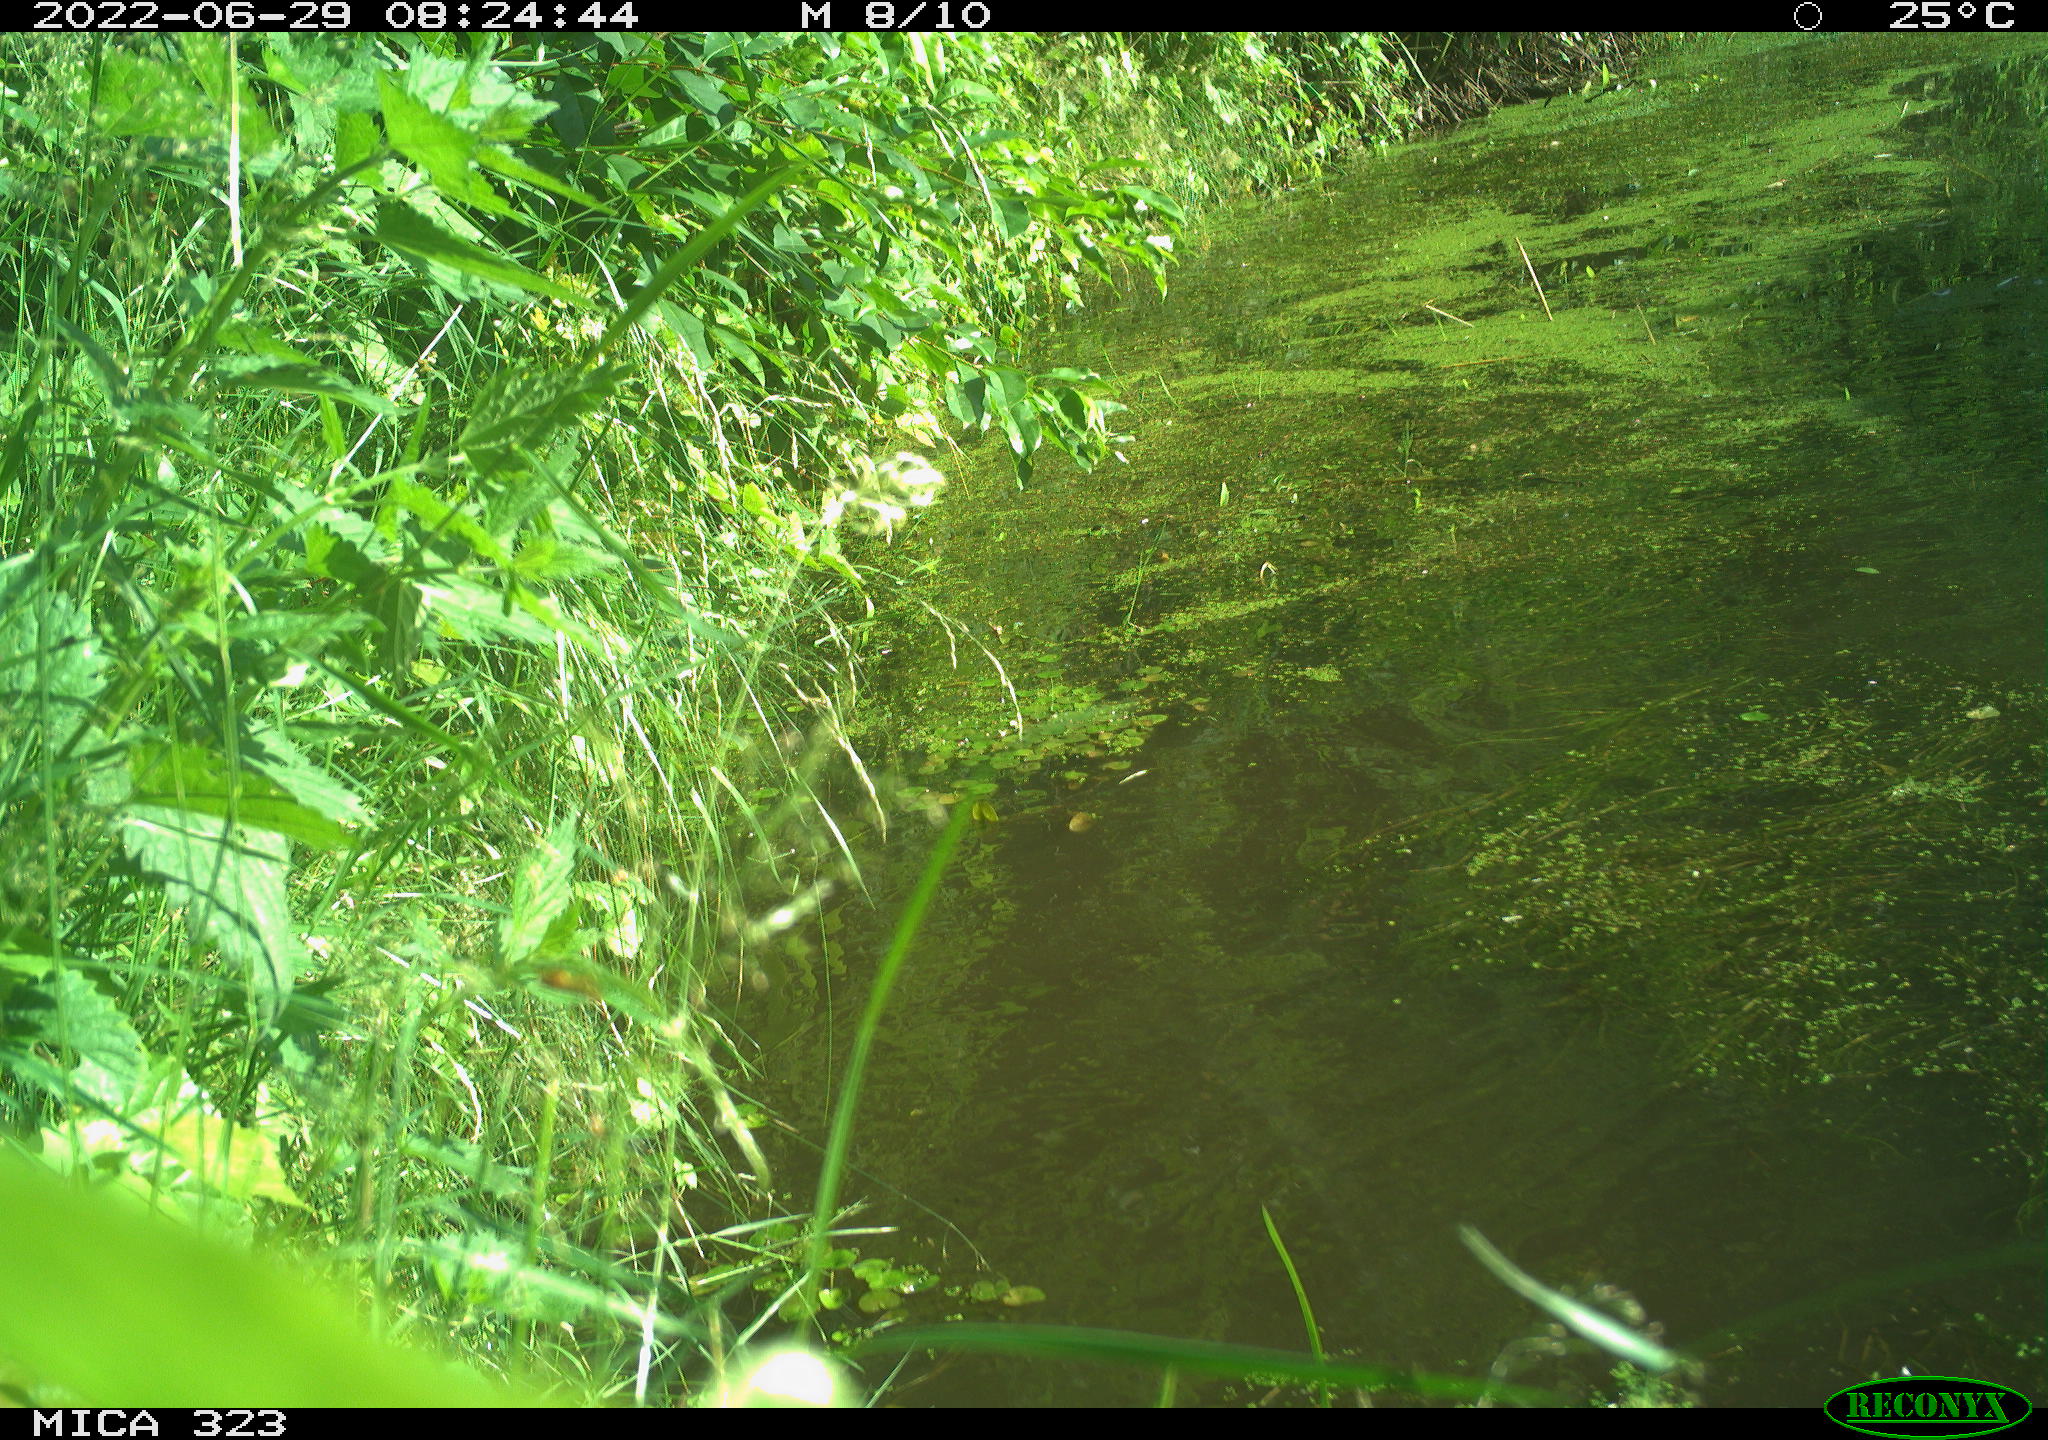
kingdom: Animalia
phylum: Chordata
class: Aves
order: Anseriformes
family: Anatidae
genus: Anas
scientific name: Anas
